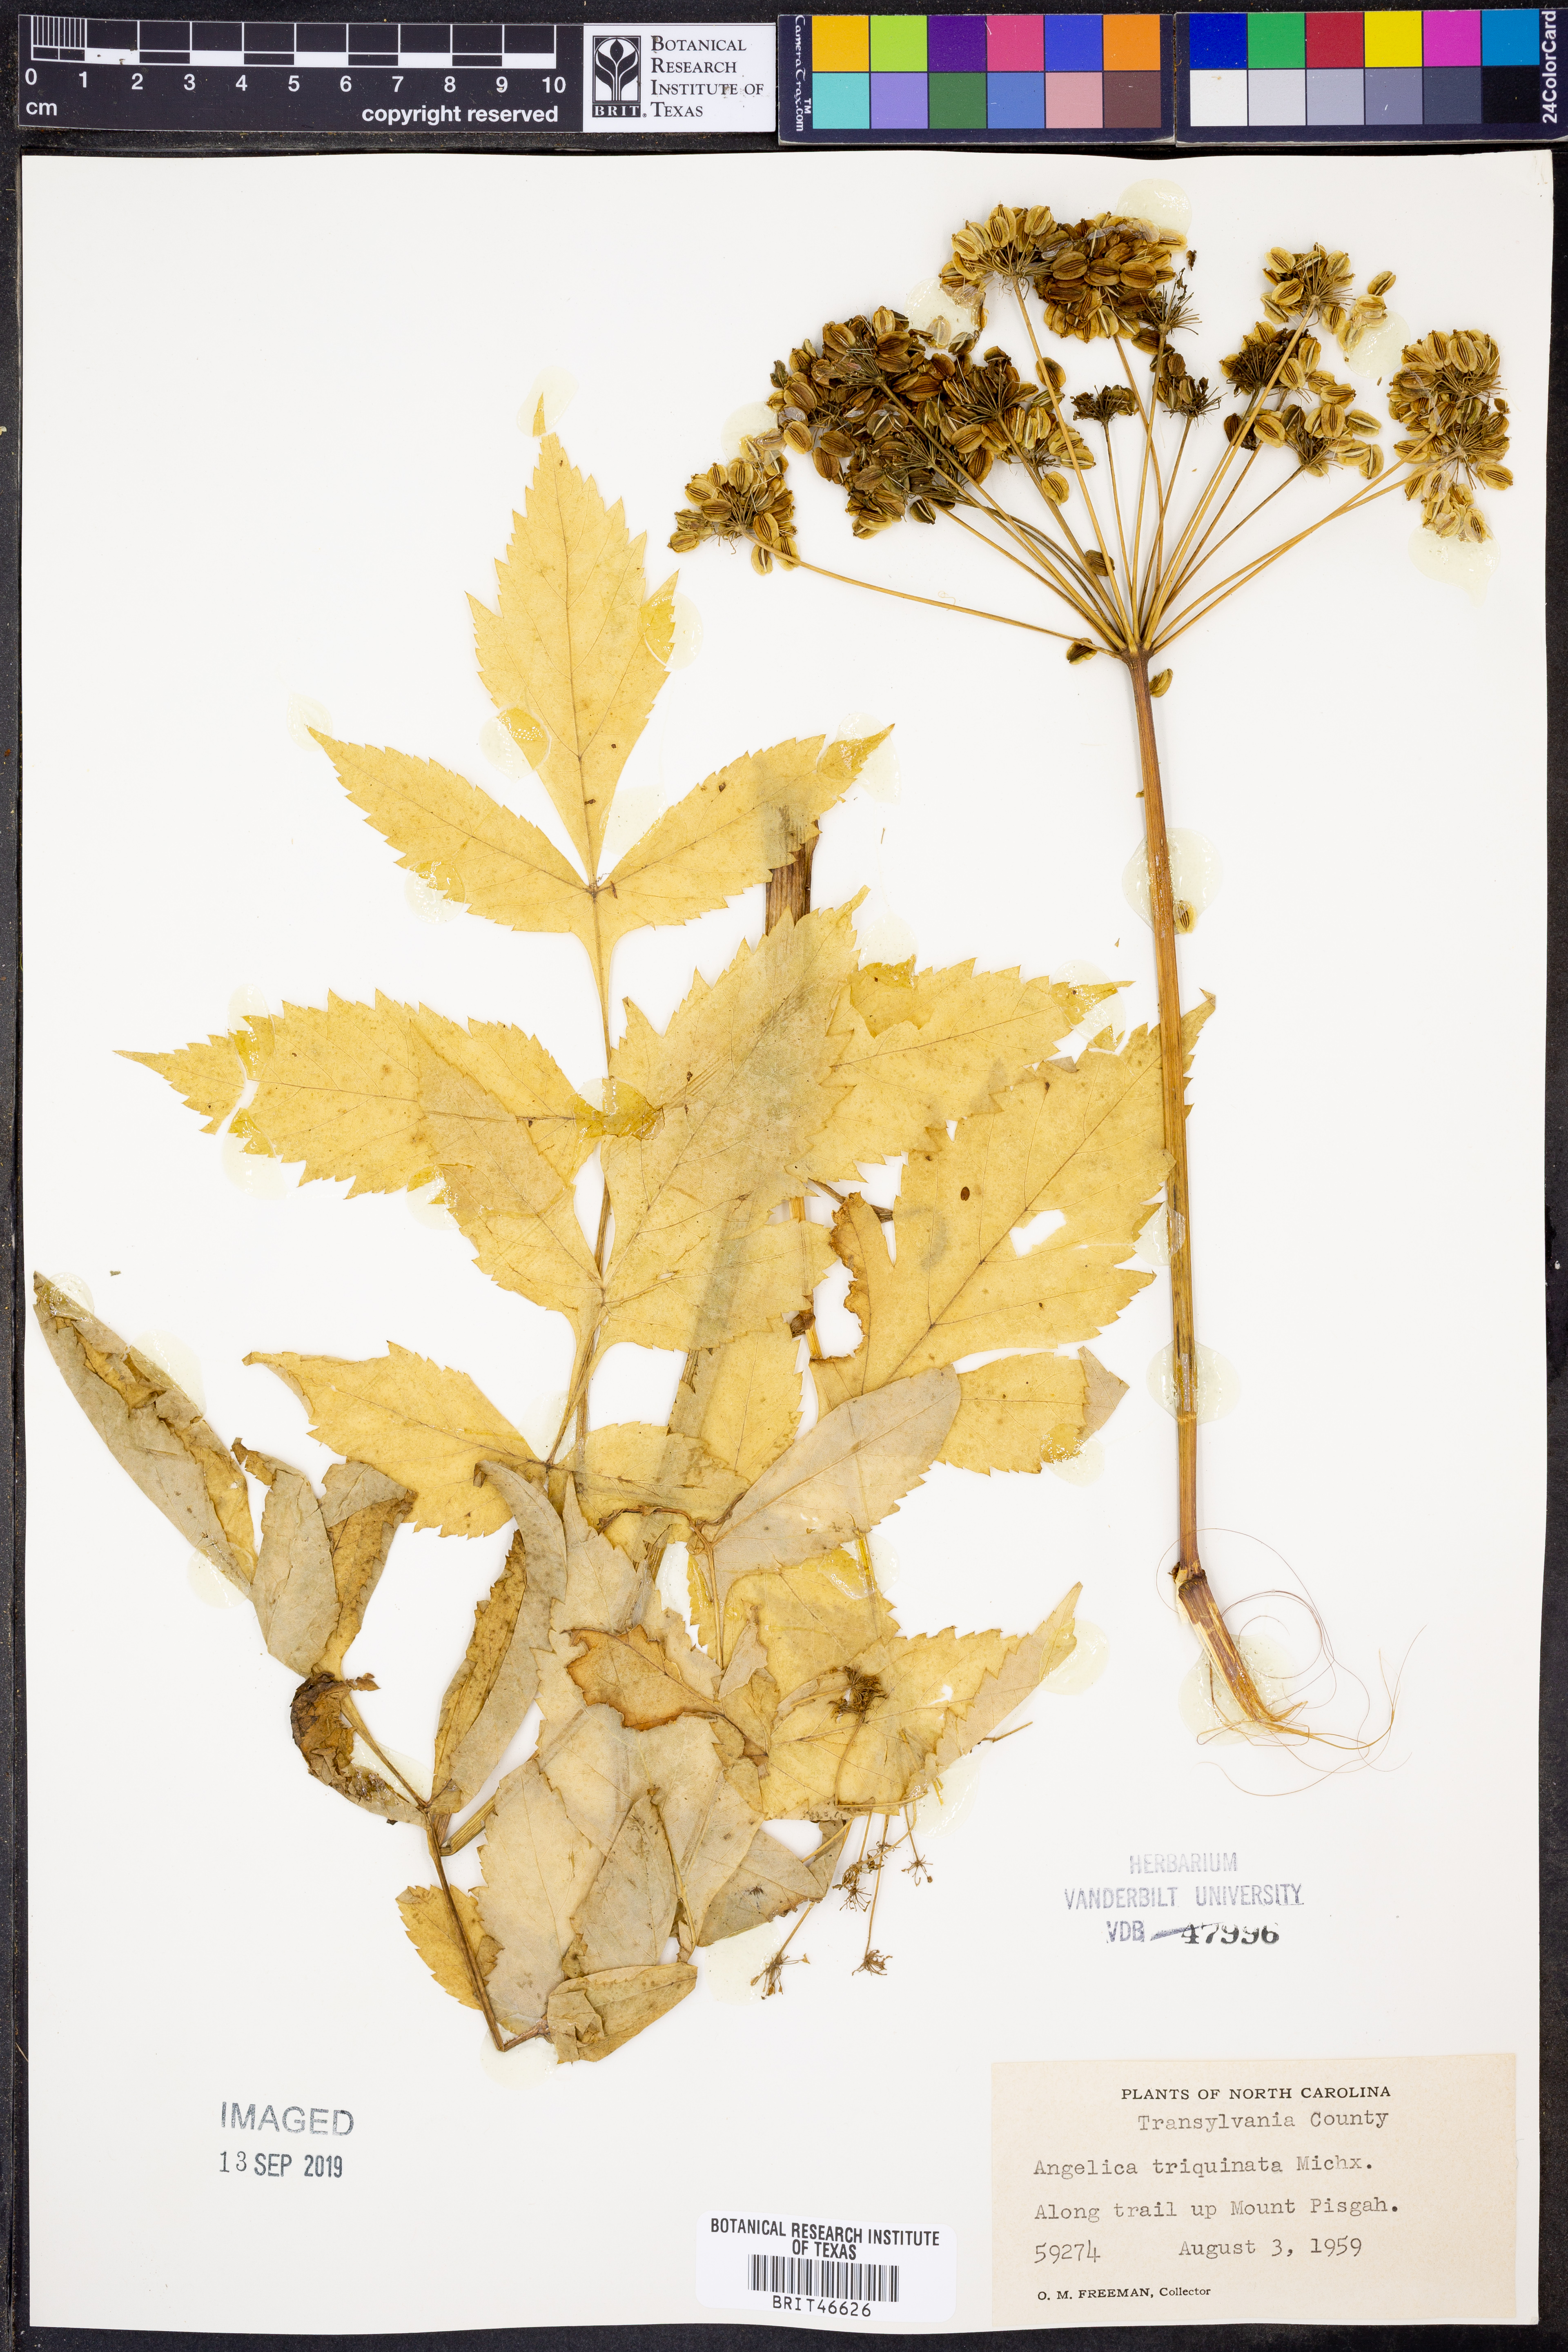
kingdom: Plantae
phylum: Tracheophyta
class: Magnoliopsida
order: Apiales
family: Apiaceae
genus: Angelica
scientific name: Angelica triquinata
